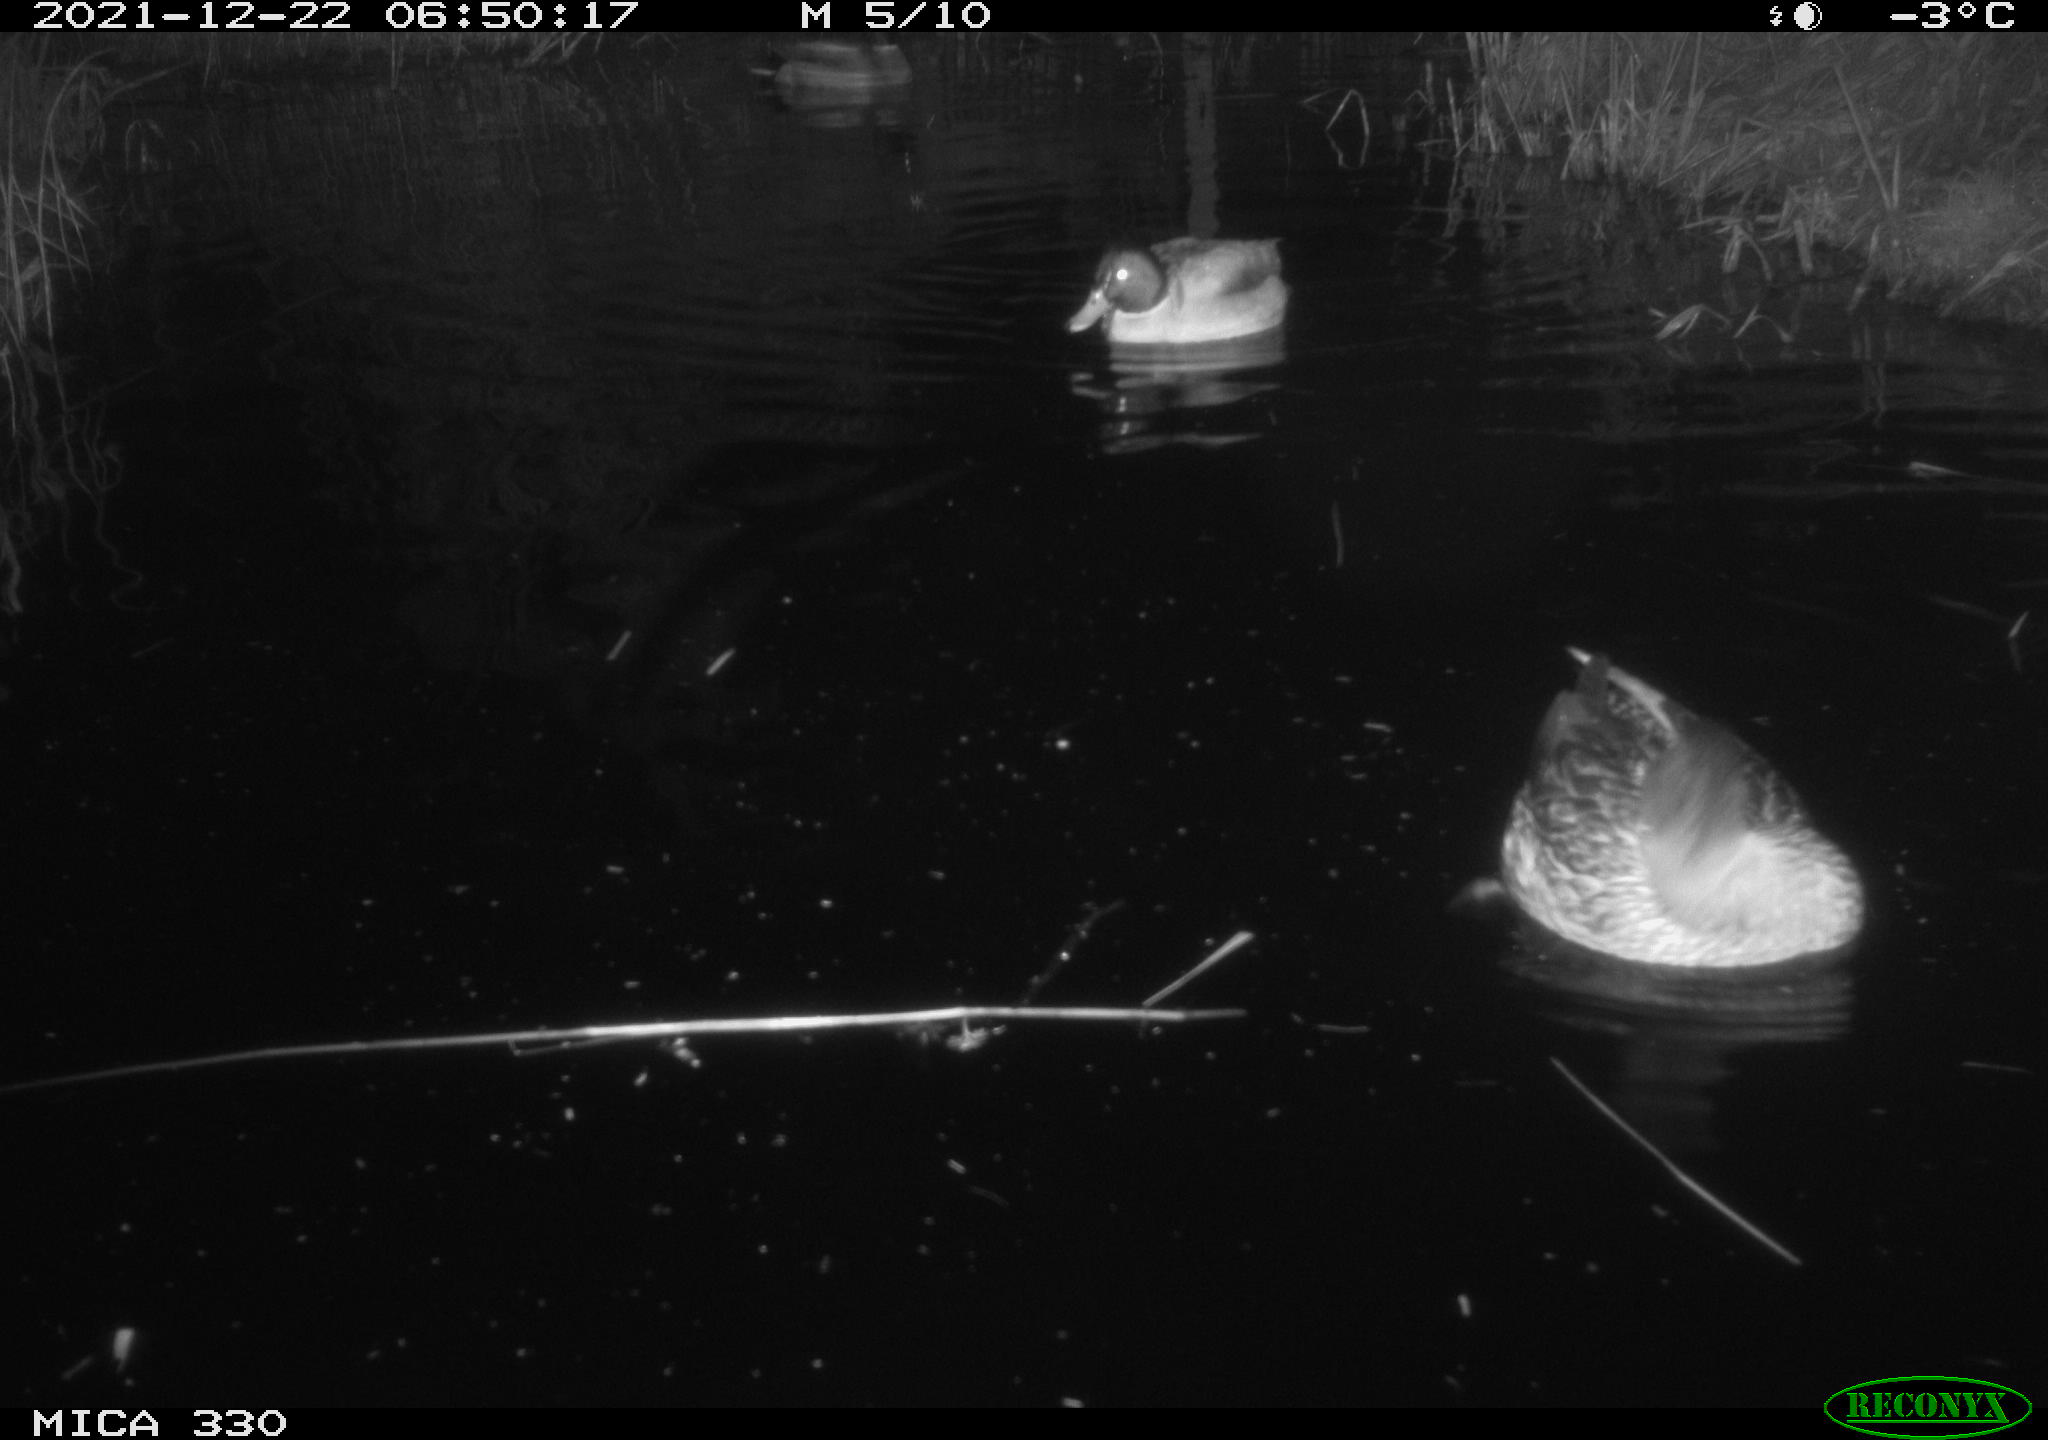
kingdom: Animalia
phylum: Chordata
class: Aves
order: Anseriformes
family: Anatidae
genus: Anas
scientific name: Anas platyrhynchos
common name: Mallard
